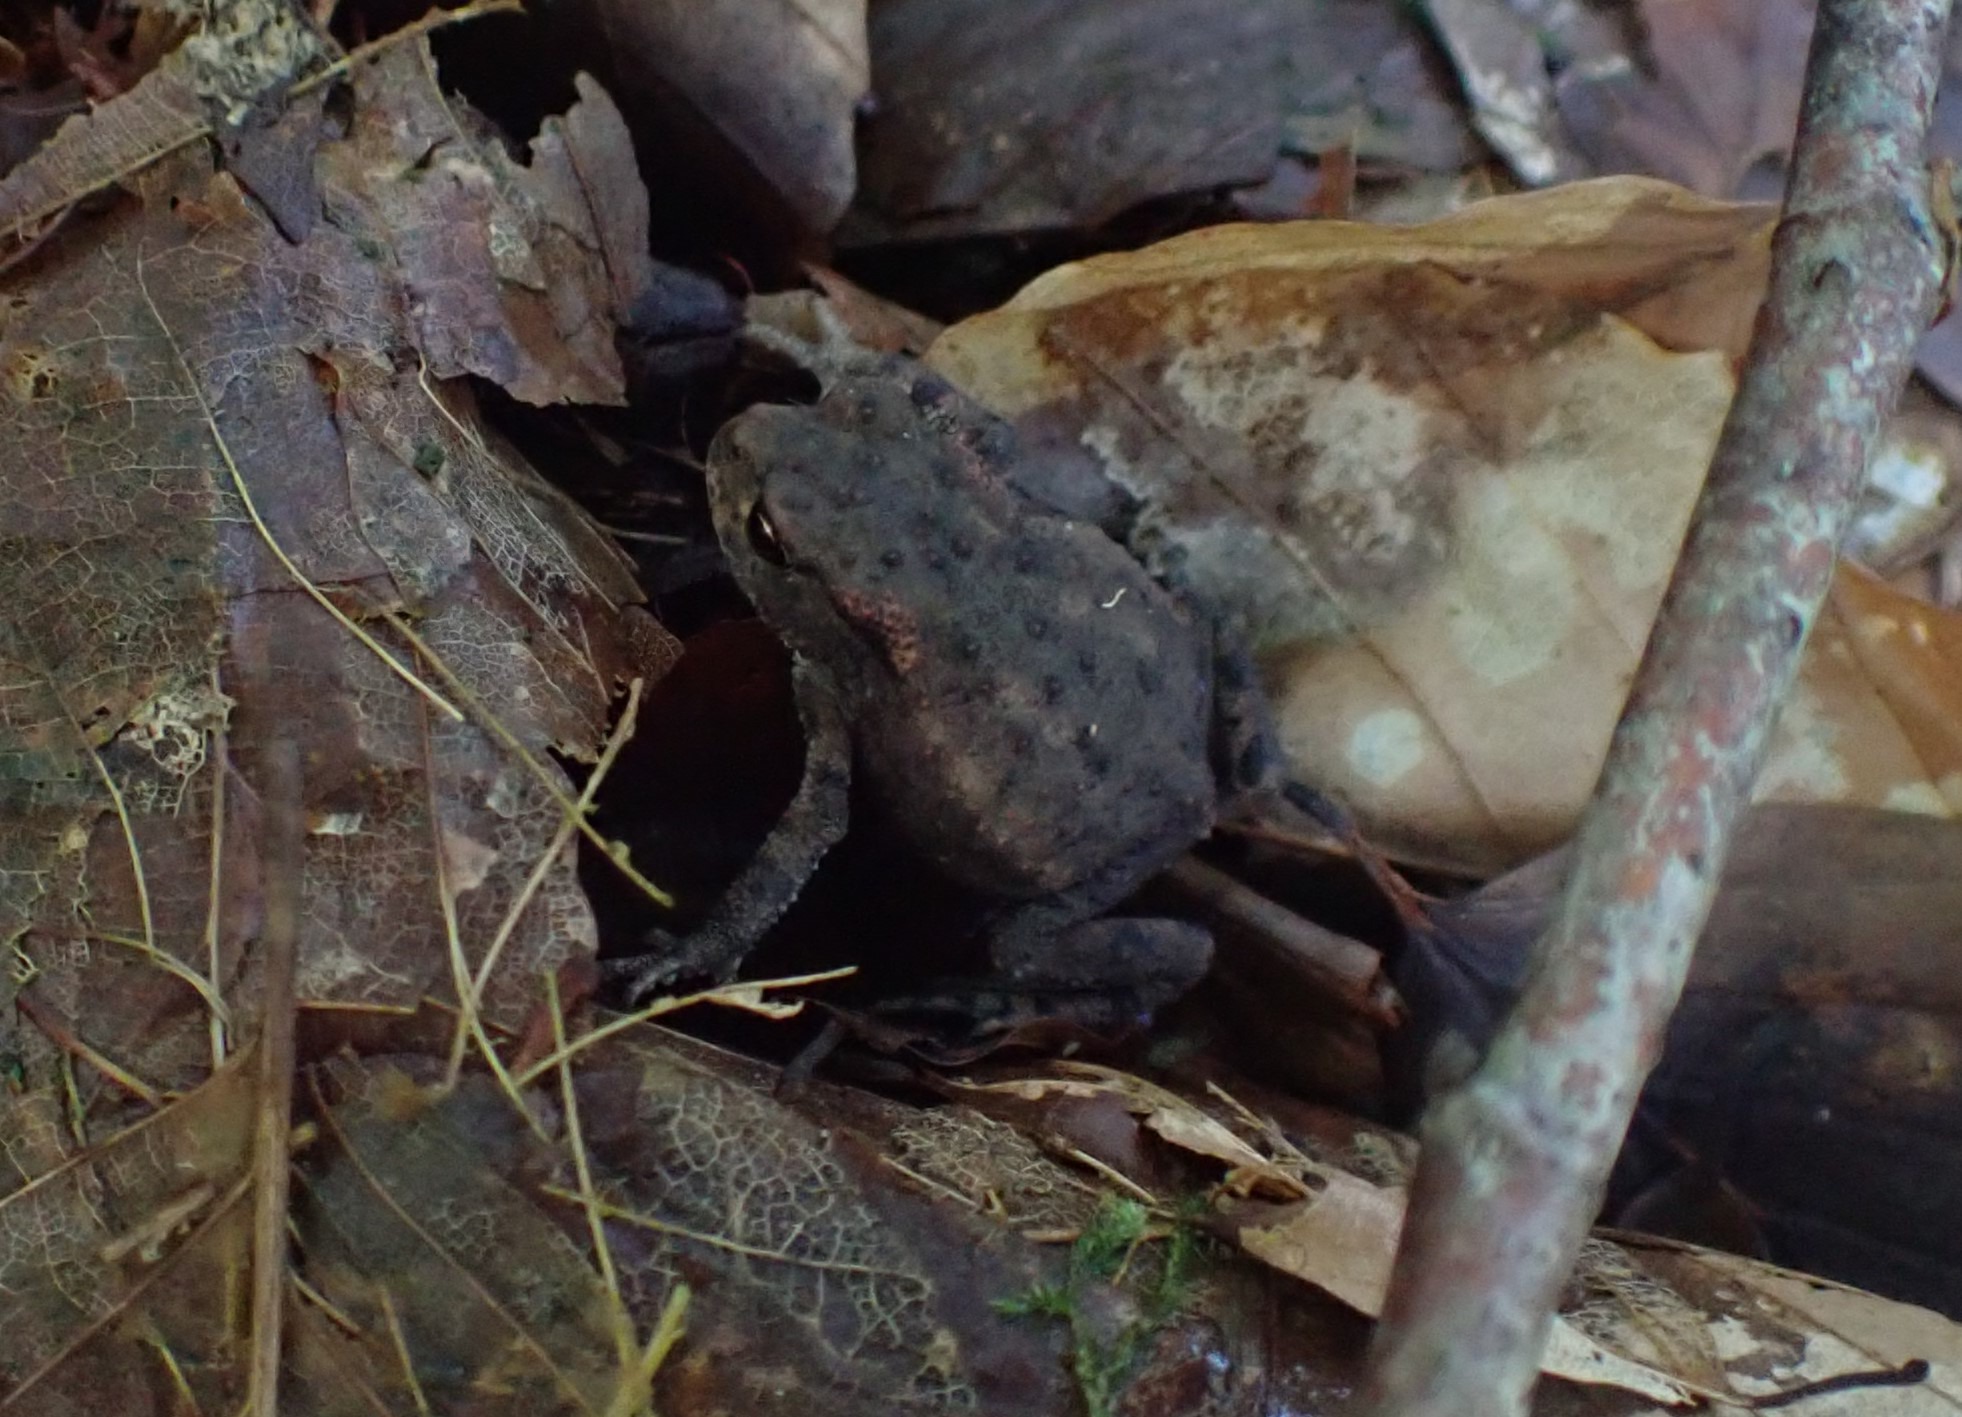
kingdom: Animalia
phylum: Chordata
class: Amphibia
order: Anura
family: Bufonidae
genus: Bufo
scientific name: Bufo bufo
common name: Skrubtudse
